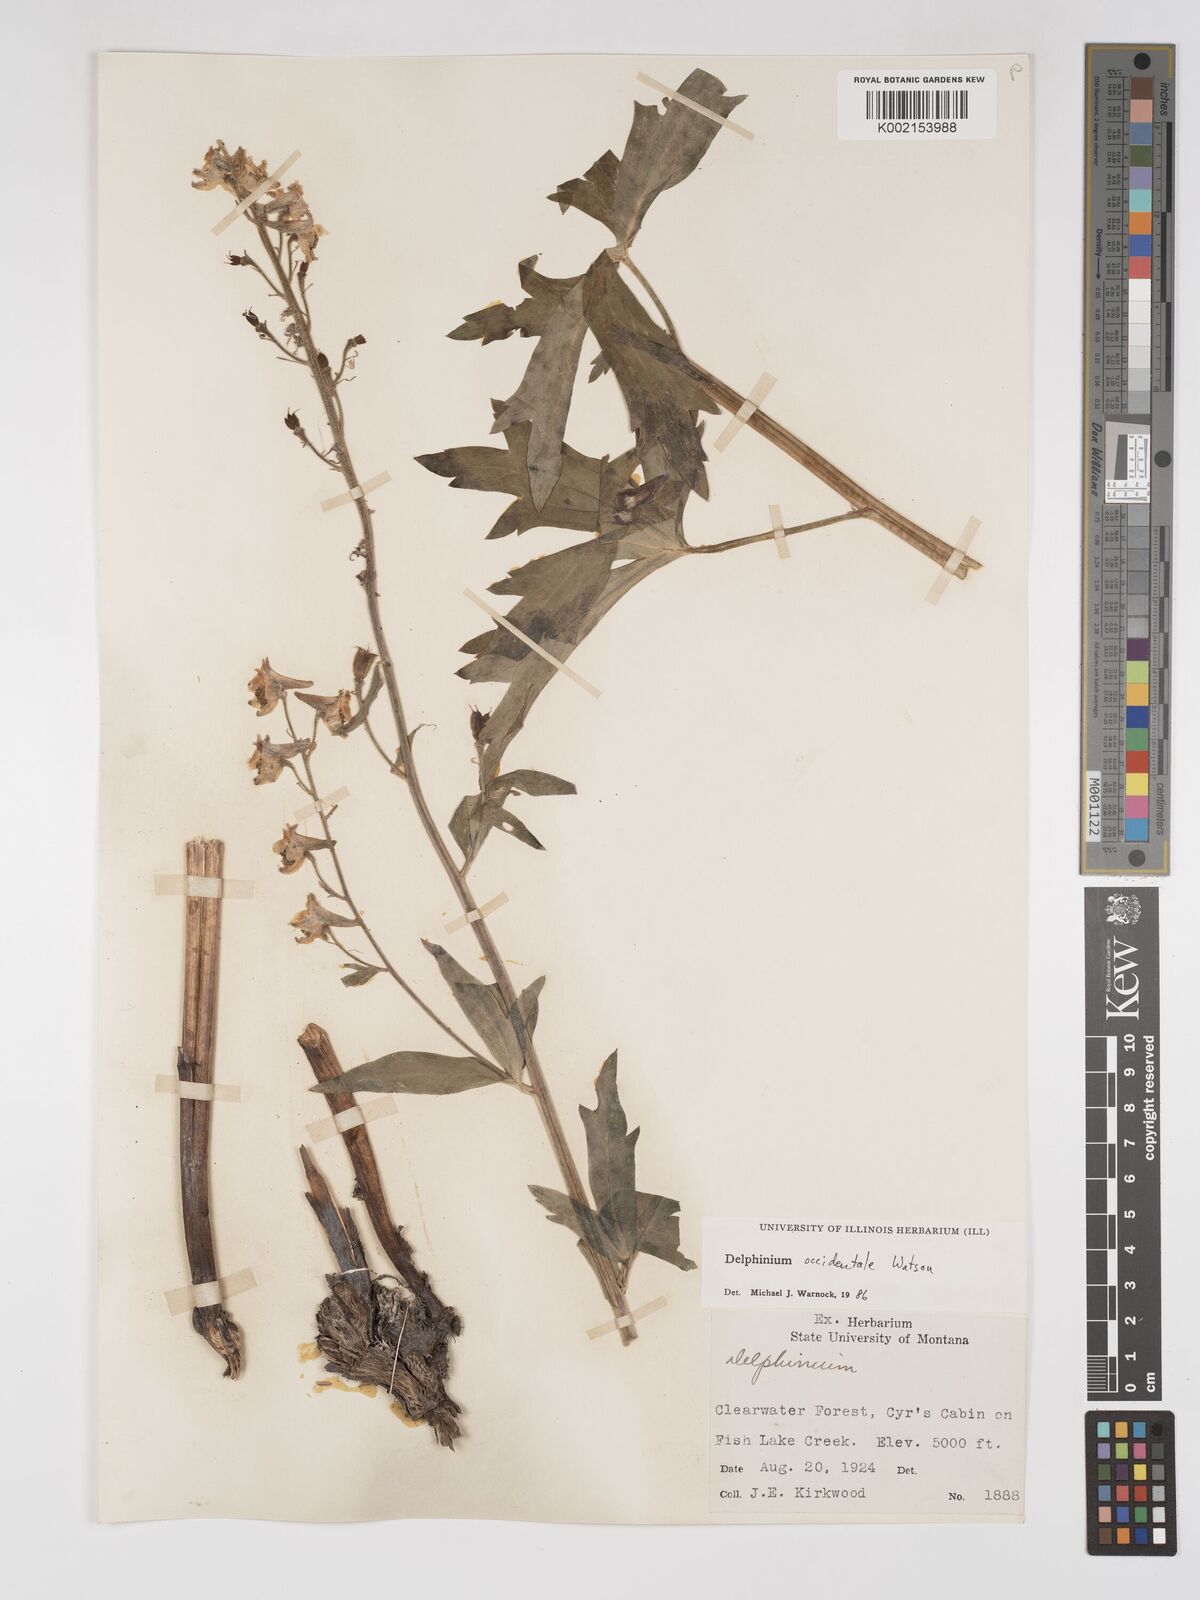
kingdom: Plantae
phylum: Tracheophyta
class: Magnoliopsida
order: Ranunculales
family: Ranunculaceae
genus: Delphinium
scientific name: Delphinium occidentale
